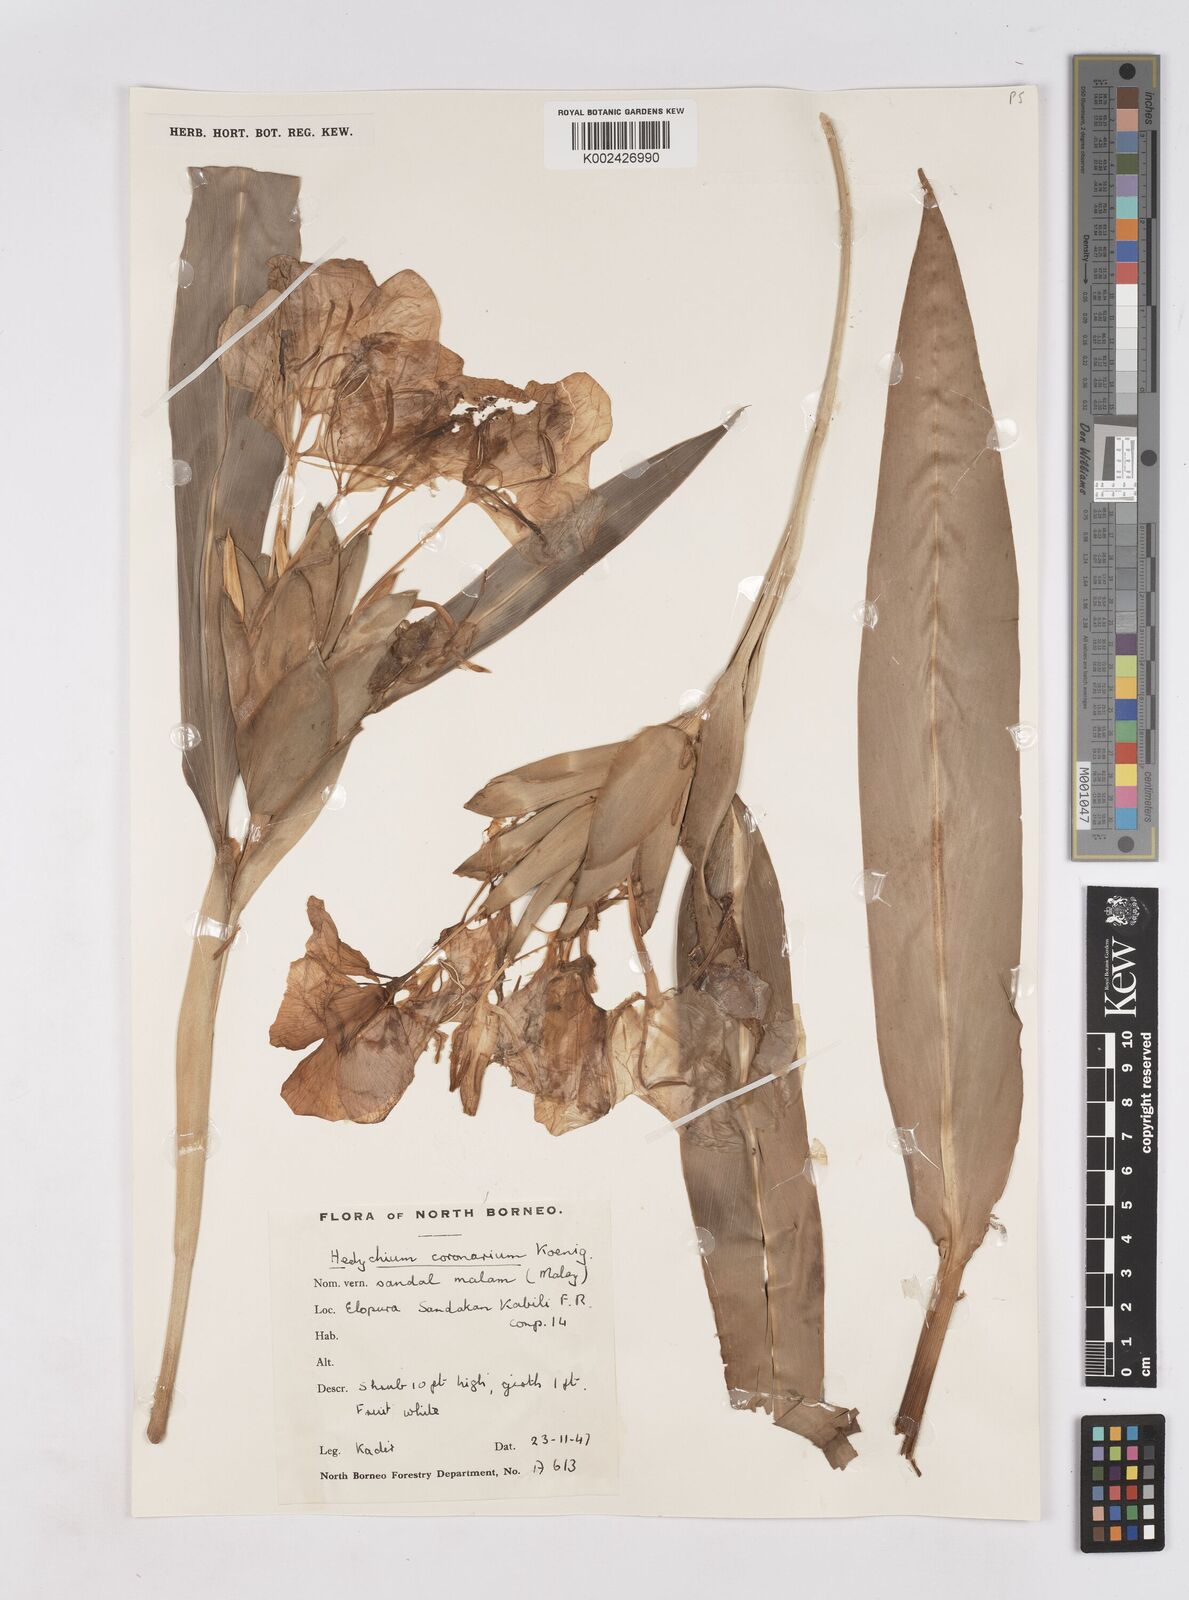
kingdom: Plantae
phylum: Tracheophyta
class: Liliopsida
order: Zingiberales
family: Zingiberaceae
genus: Hedychium
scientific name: Hedychium coronarium
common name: White garland-lily
